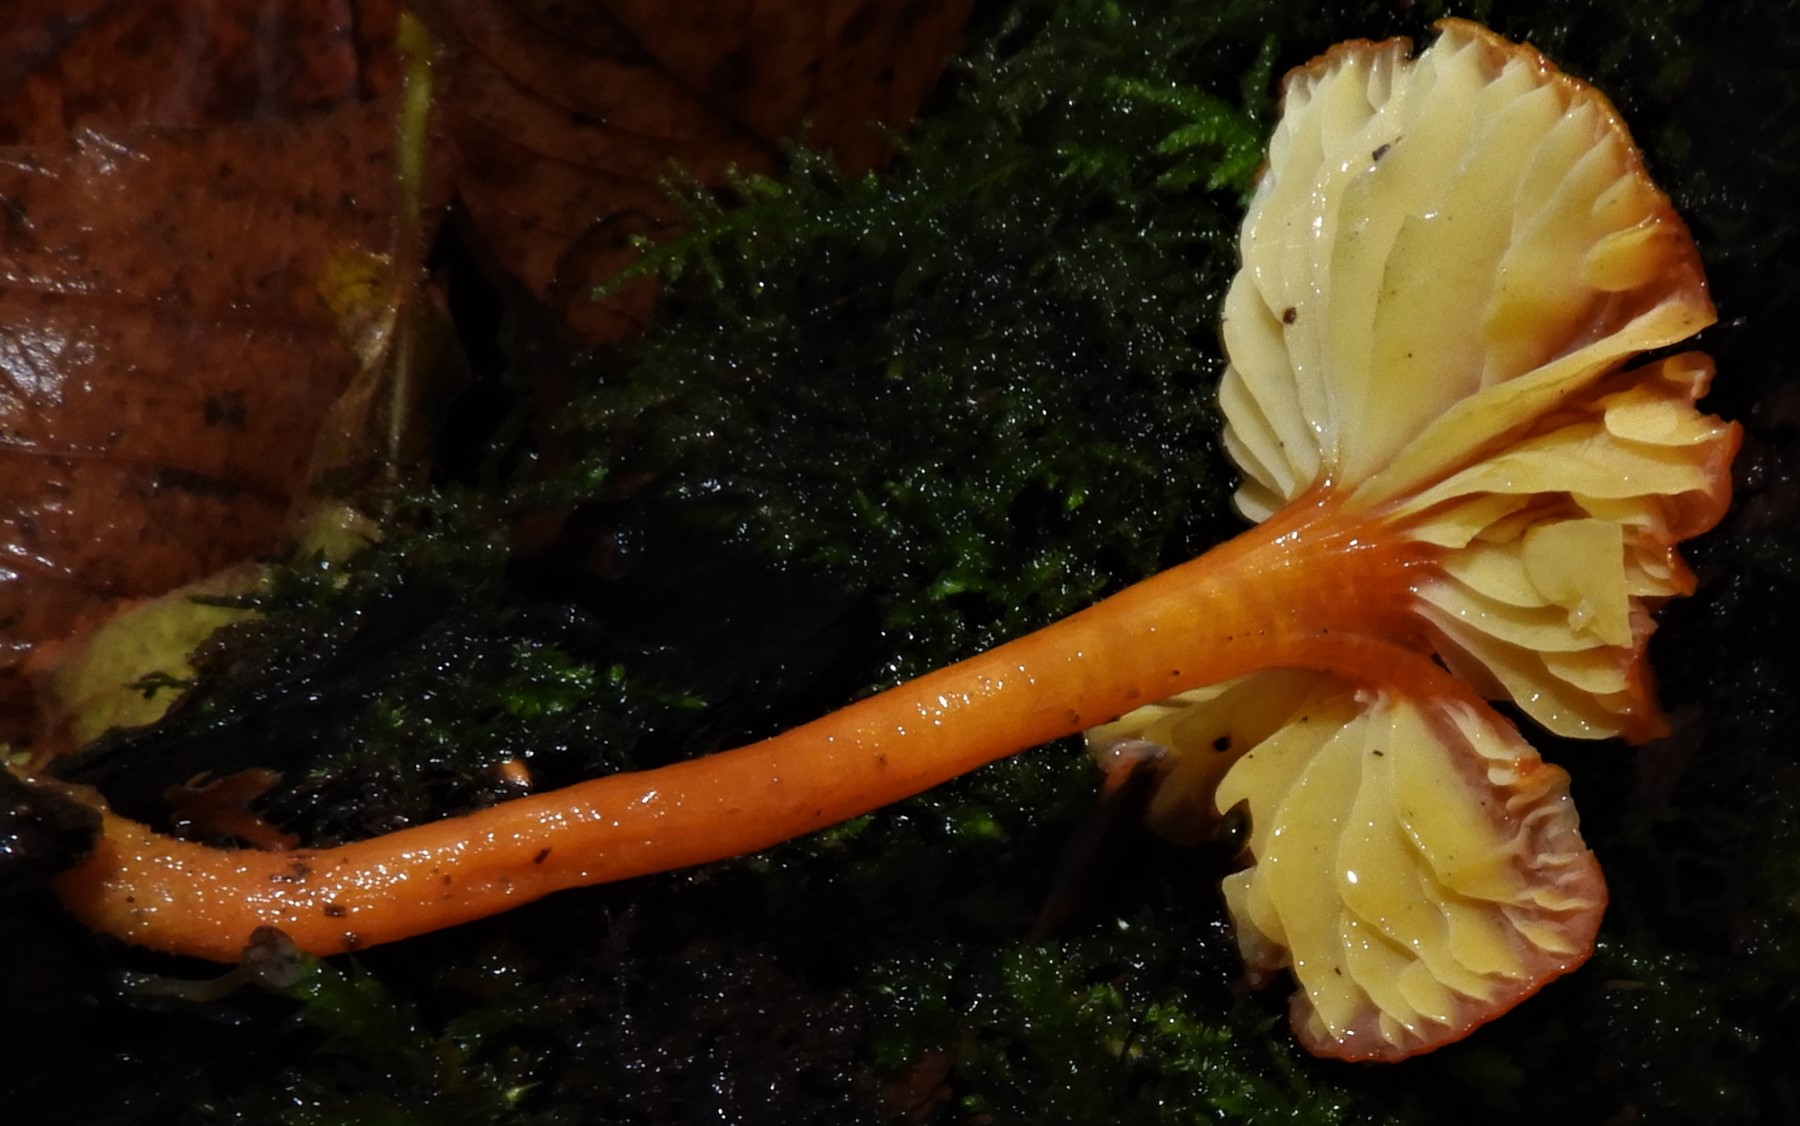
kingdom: Fungi
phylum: Basidiomycota
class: Agaricomycetes
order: Agaricales
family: Hygrophoraceae
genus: Hygrocybe
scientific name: Hygrocybe
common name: vokshat
